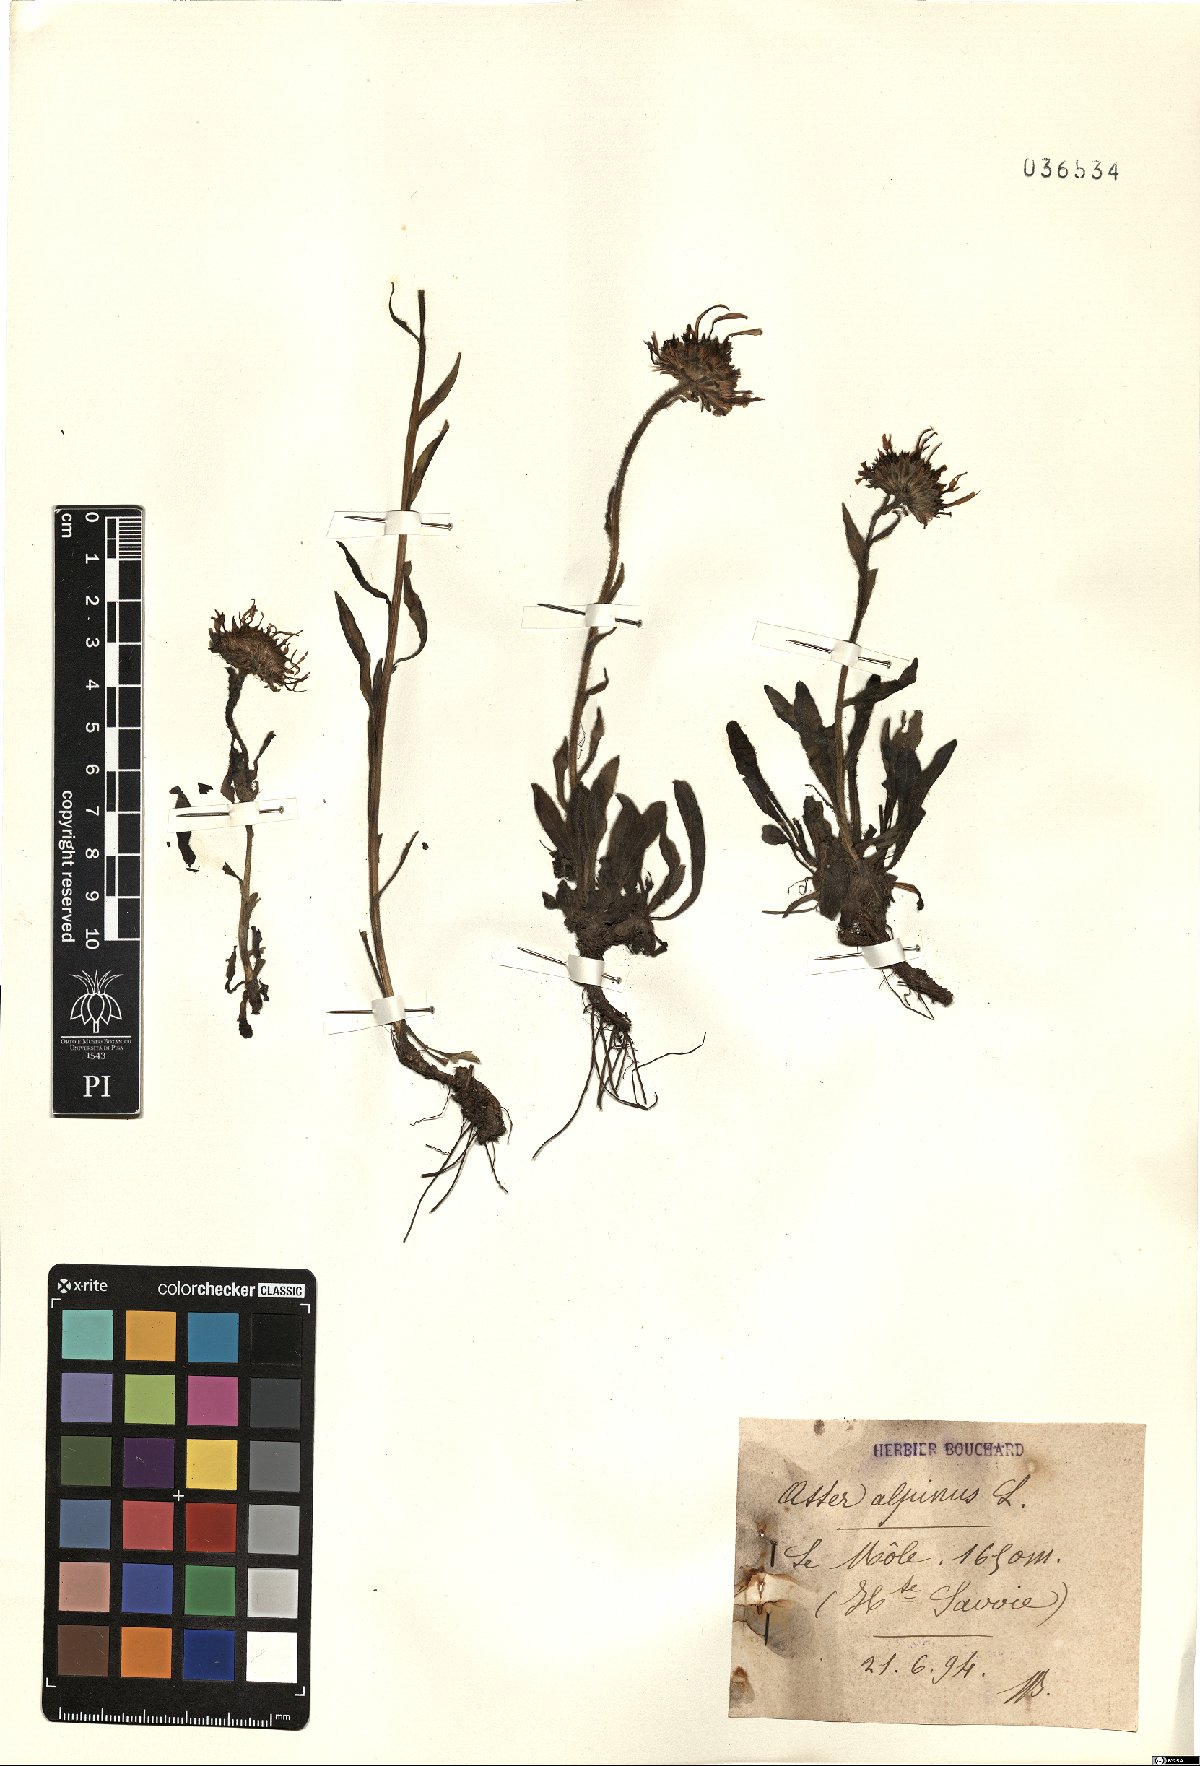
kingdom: Plantae
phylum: Tracheophyta
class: Magnoliopsida
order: Asterales
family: Asteraceae
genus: Aster
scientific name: Aster alpinus
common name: Alpine aster
